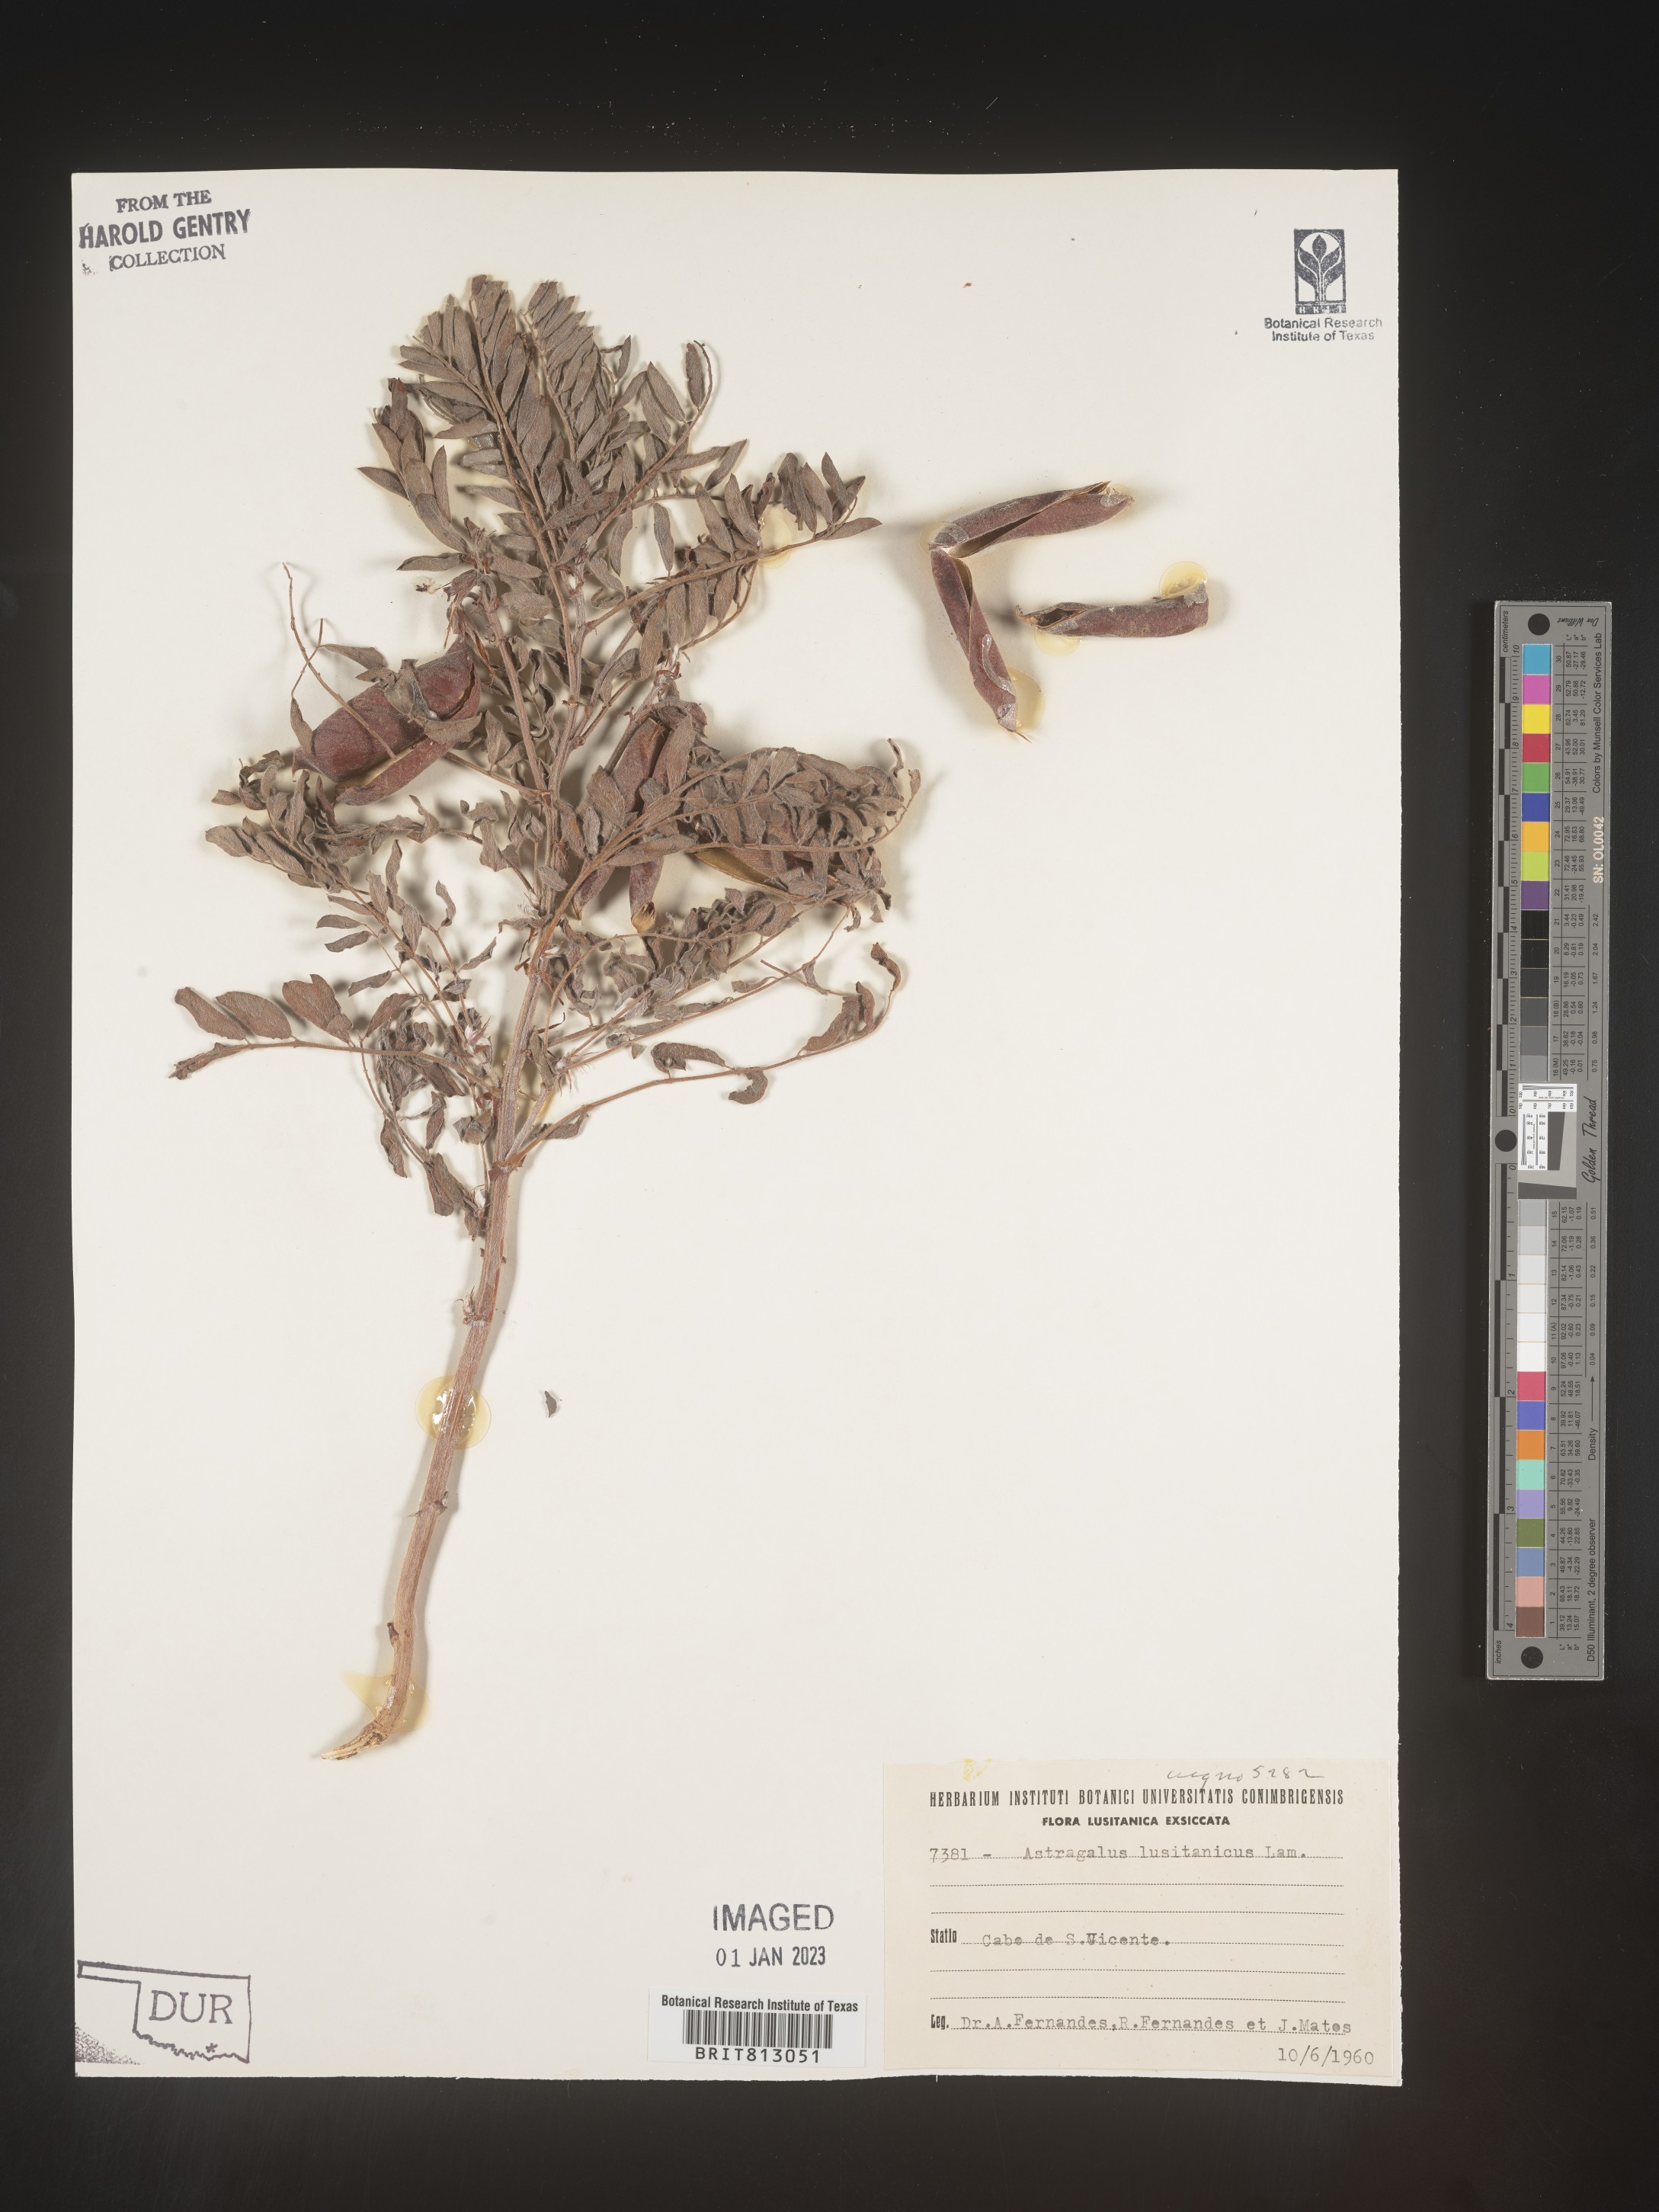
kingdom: Plantae
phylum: Tracheophyta
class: Magnoliopsida
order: Fabales
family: Fabaceae
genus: Astragalus
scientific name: Astragalus
